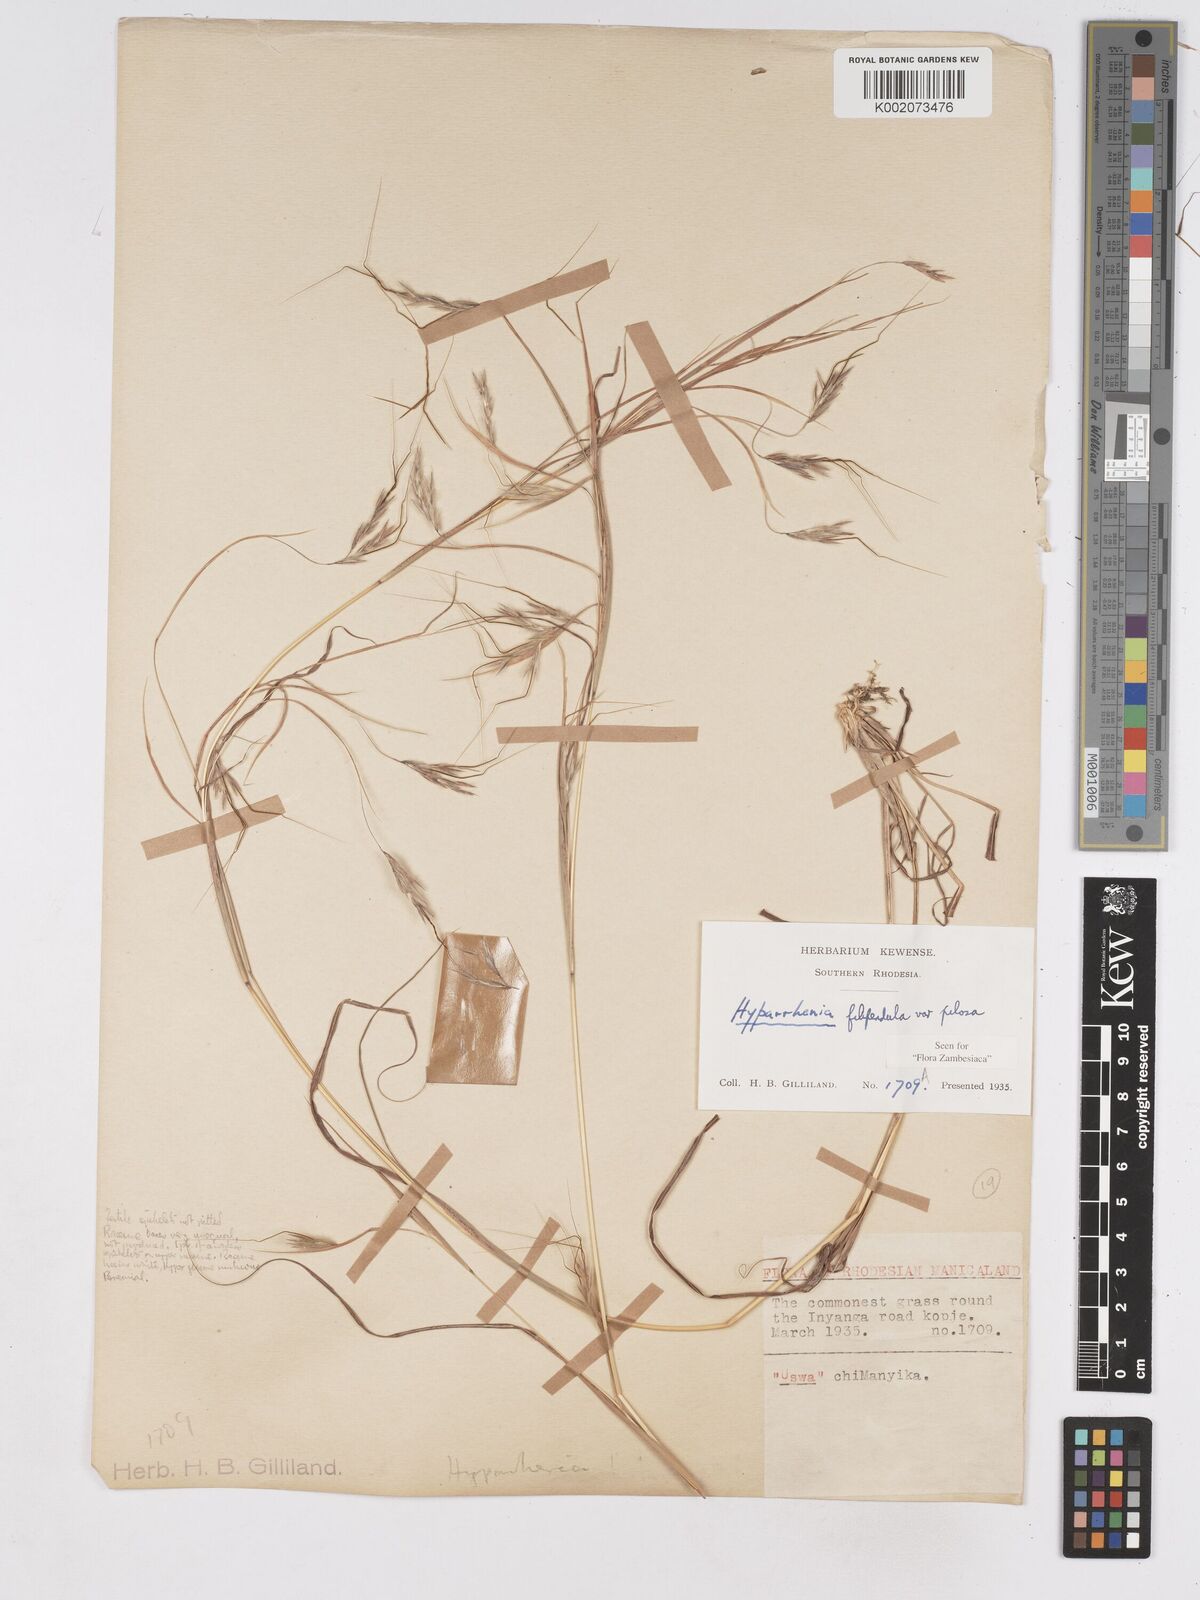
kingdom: Plantae
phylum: Tracheophyta
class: Liliopsida
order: Poales
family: Poaceae
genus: Hyparrhenia
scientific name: Hyparrhenia filipendula
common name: Tambookie grass
